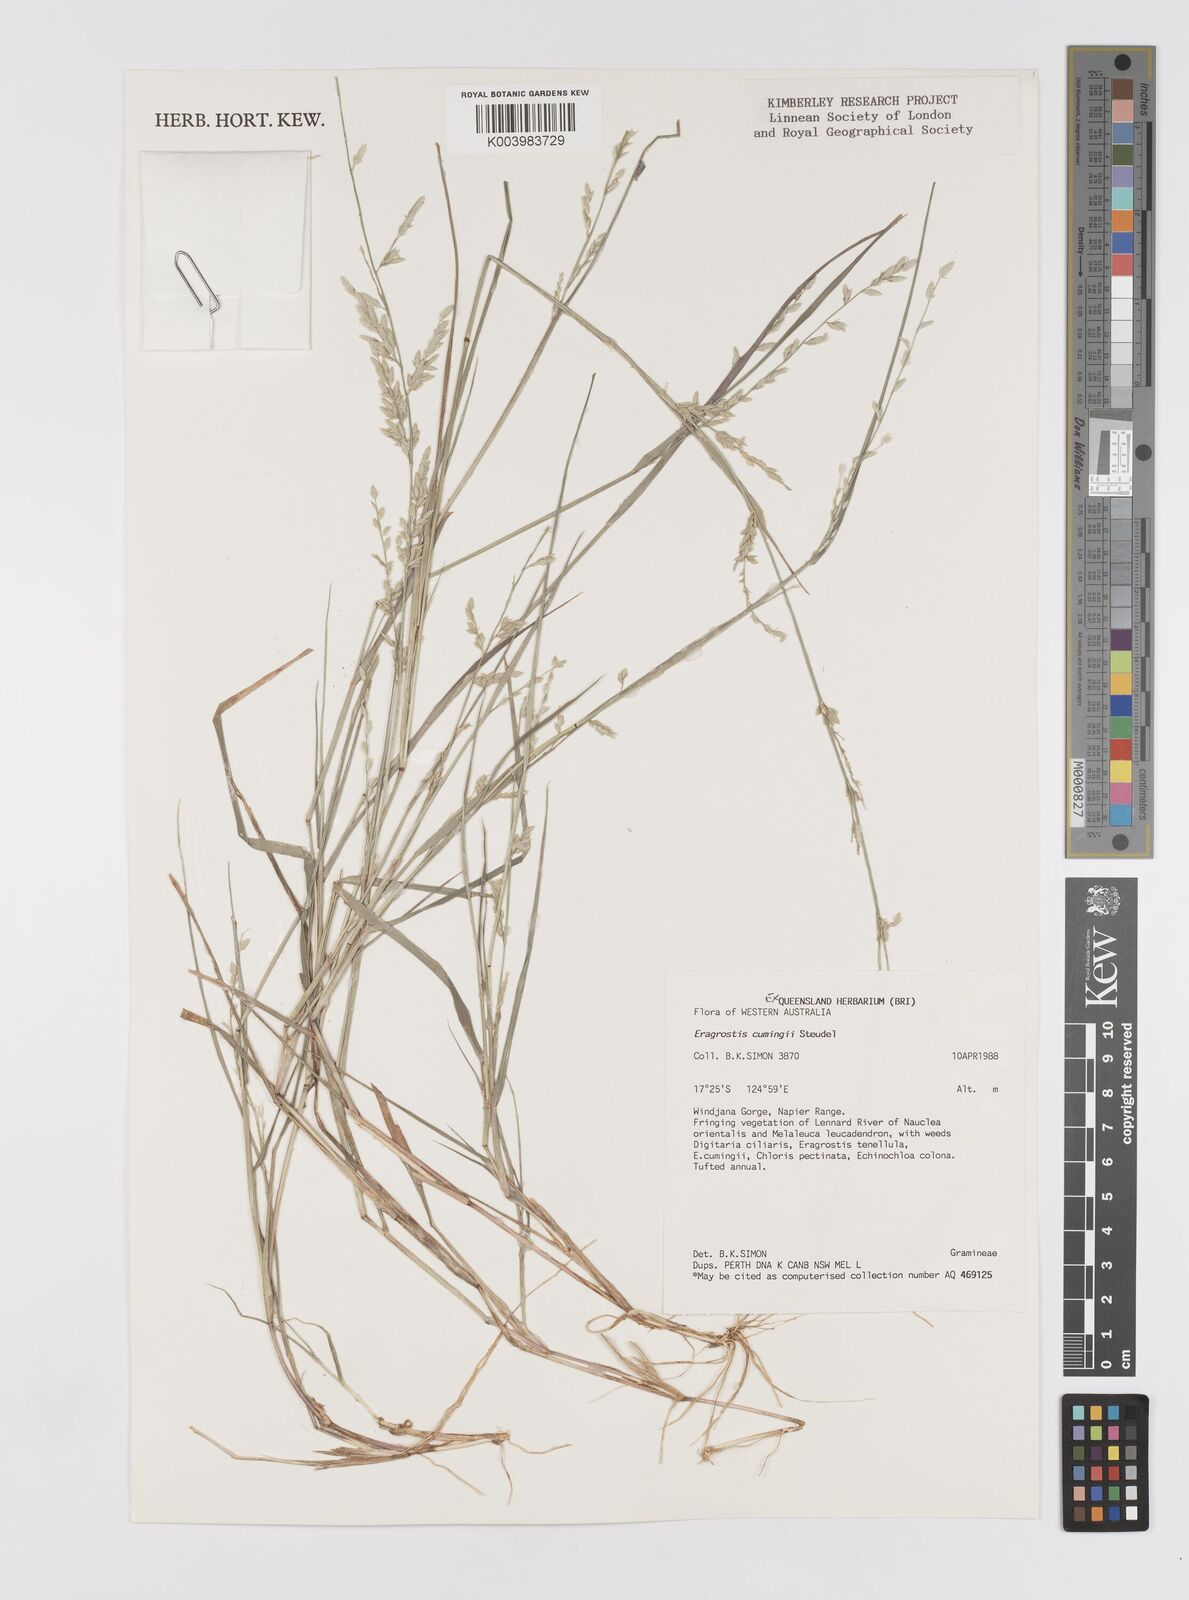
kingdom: Plantae
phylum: Tracheophyta
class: Liliopsida
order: Poales
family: Poaceae
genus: Eragrostis
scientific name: Eragrostis cumingii
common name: Cuming's lovegrass
